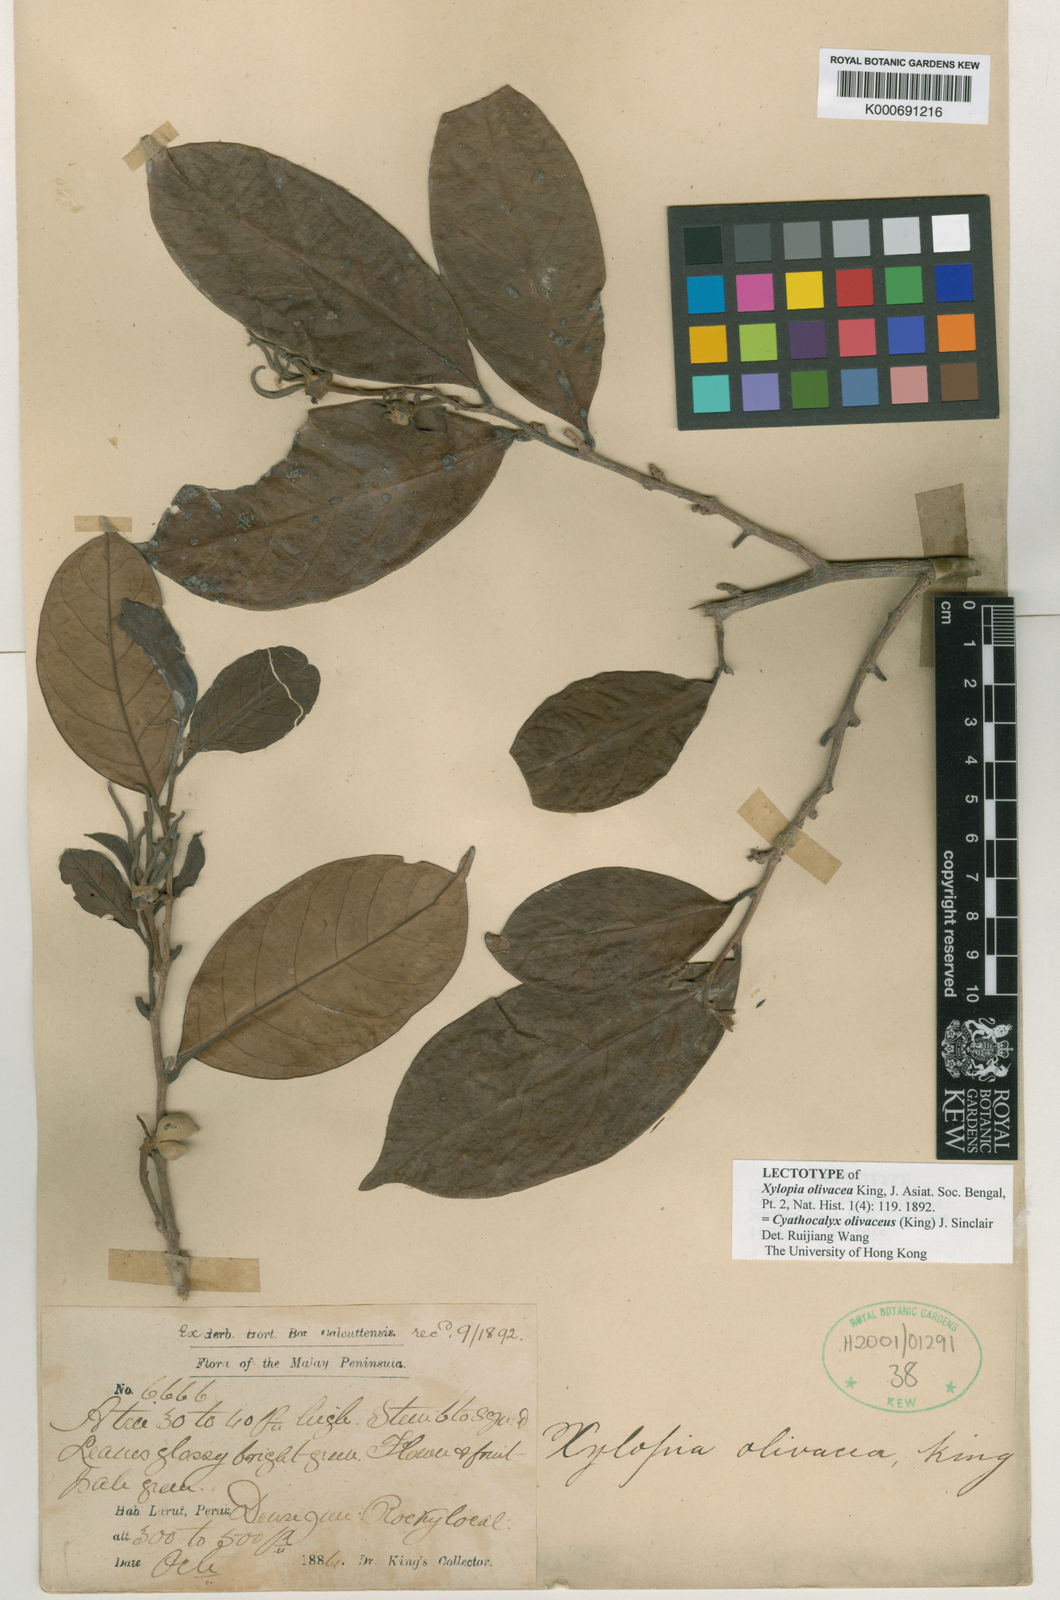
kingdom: Plantae
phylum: Tracheophyta
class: Magnoliopsida
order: Magnoliales
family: Annonaceae
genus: Drepananthus
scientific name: Drepananthus olivaceus
